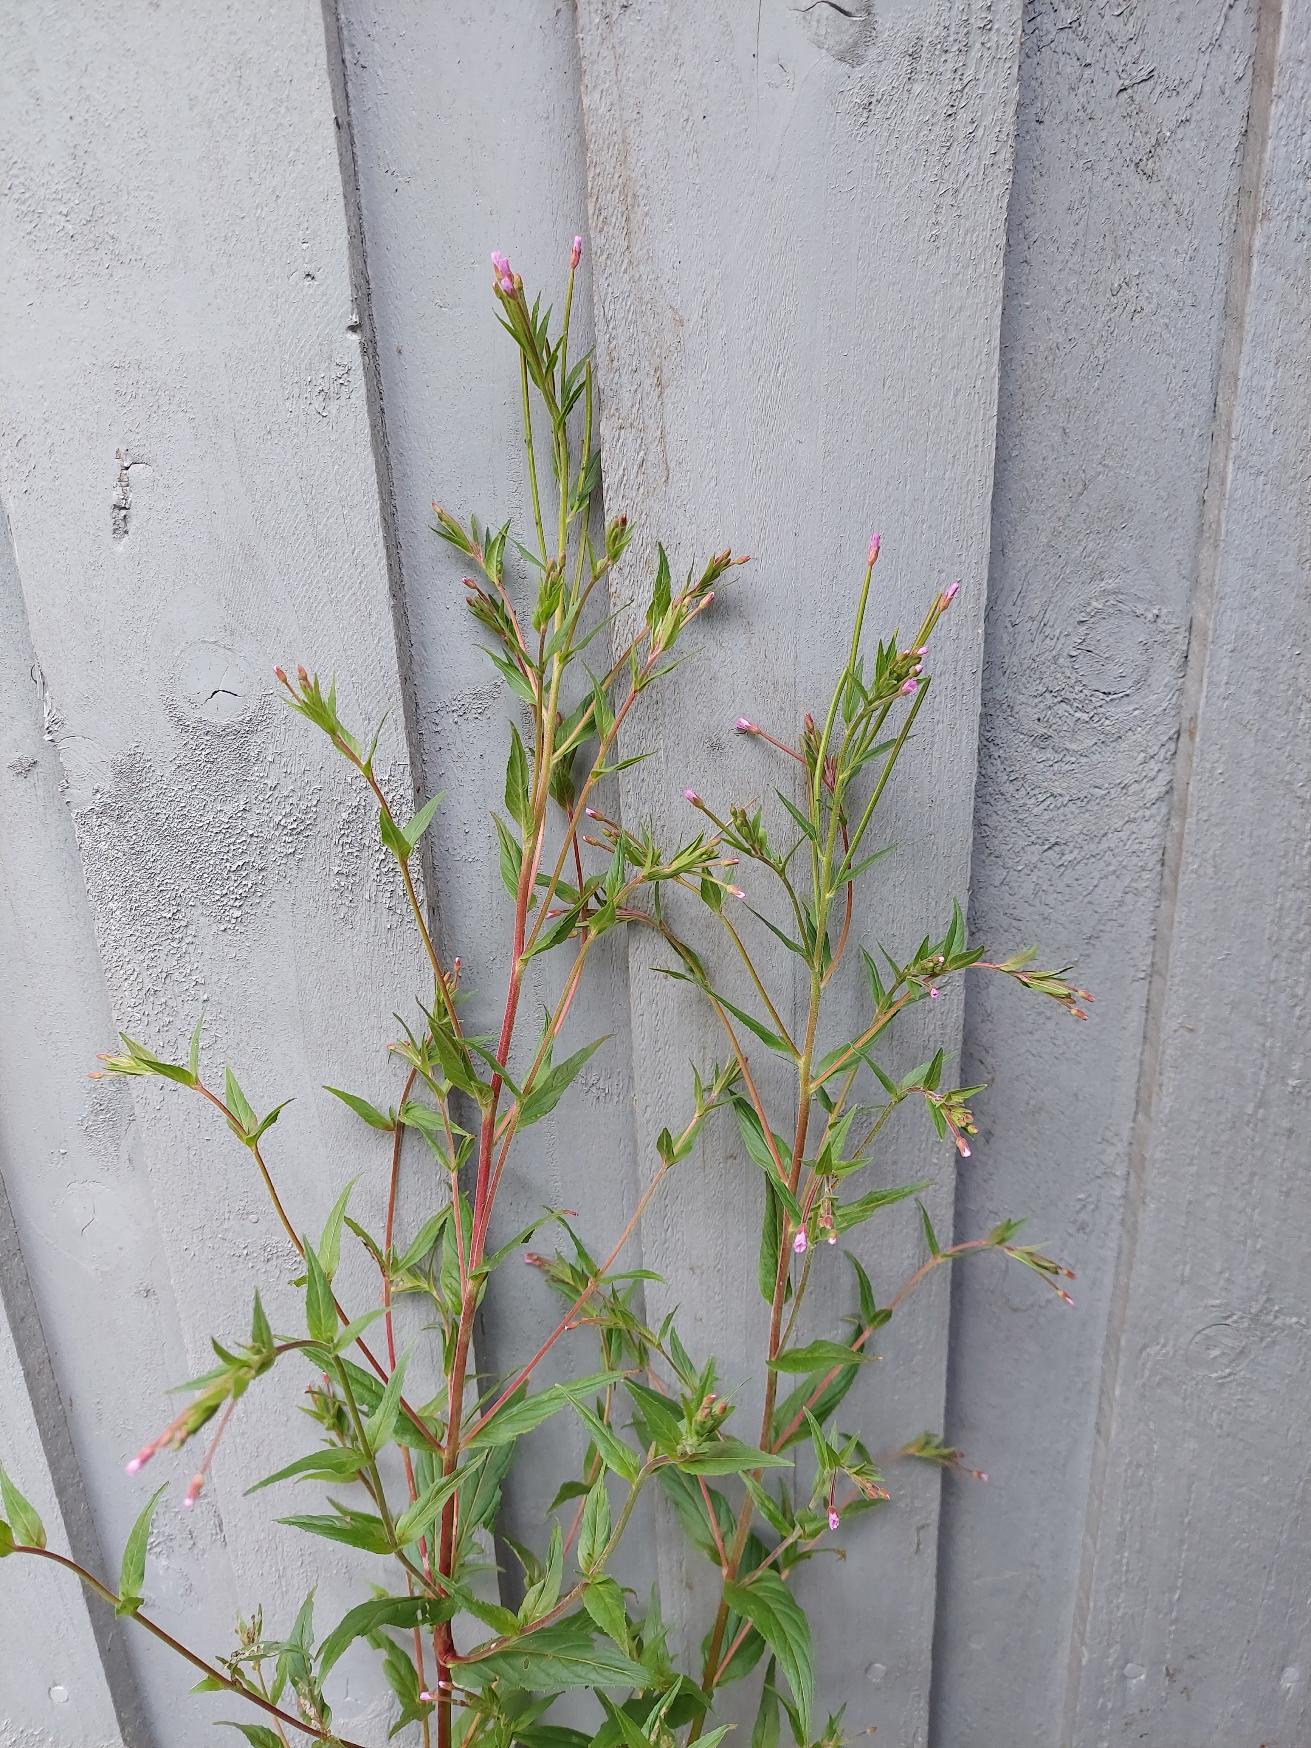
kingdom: Plantae
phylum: Tracheophyta
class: Magnoliopsida
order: Myrtales
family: Onagraceae
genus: Epilobium
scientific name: Epilobium ciliatum
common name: Kirtlet dueurt
